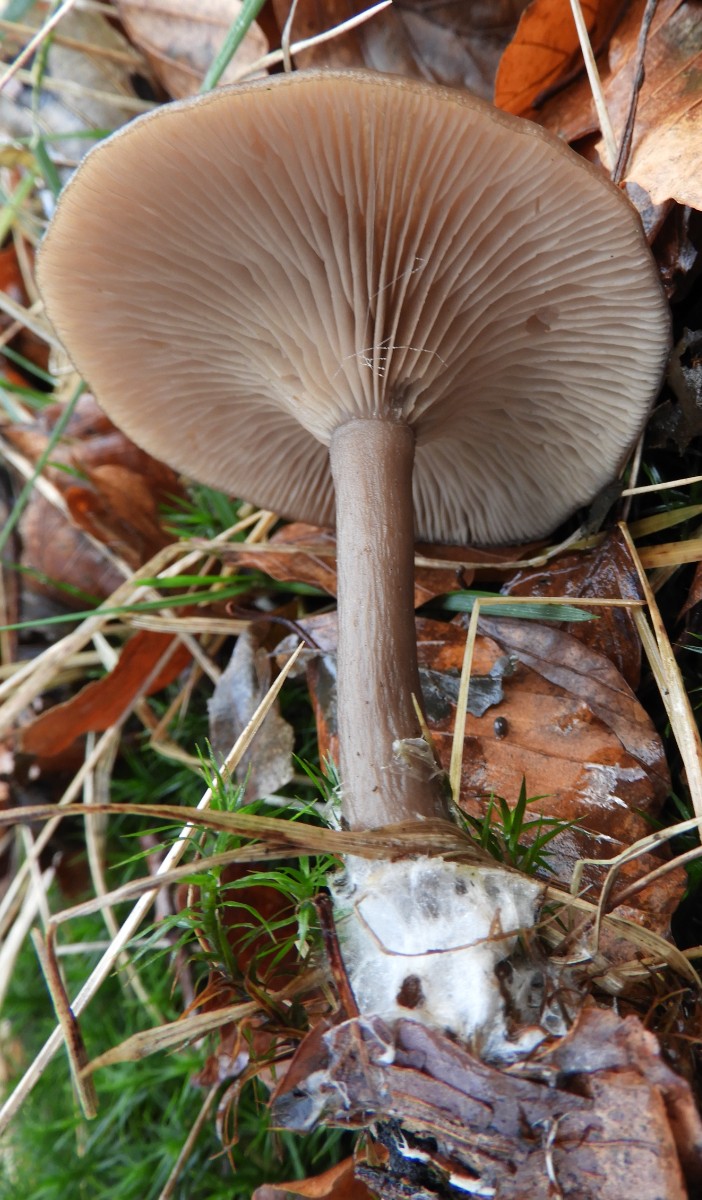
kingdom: Fungi
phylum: Basidiomycota
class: Agaricomycetes
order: Agaricales
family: Pseudoclitocybaceae
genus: Pseudoclitocybe
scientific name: Pseudoclitocybe cyathiformis
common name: almindelig bægertragthat
